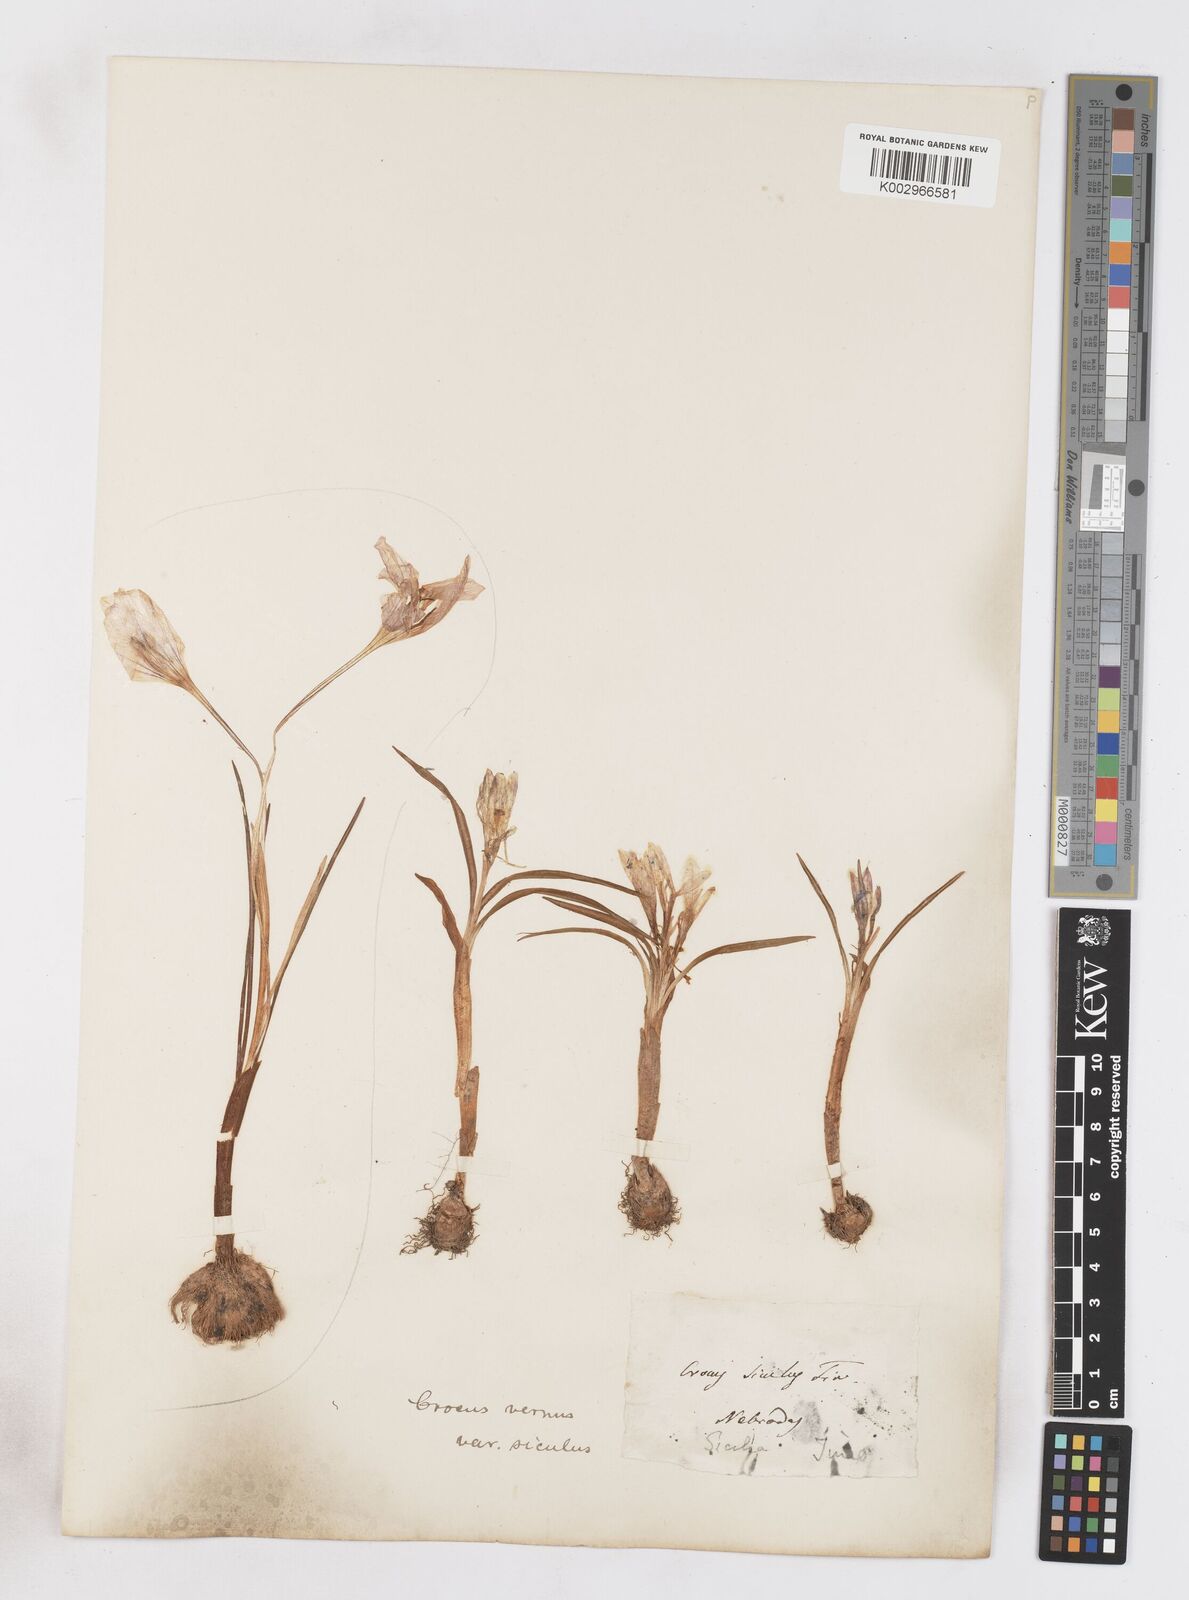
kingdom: Plantae
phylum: Tracheophyta
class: Liliopsida
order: Asparagales
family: Iridaceae
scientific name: Iridaceae
